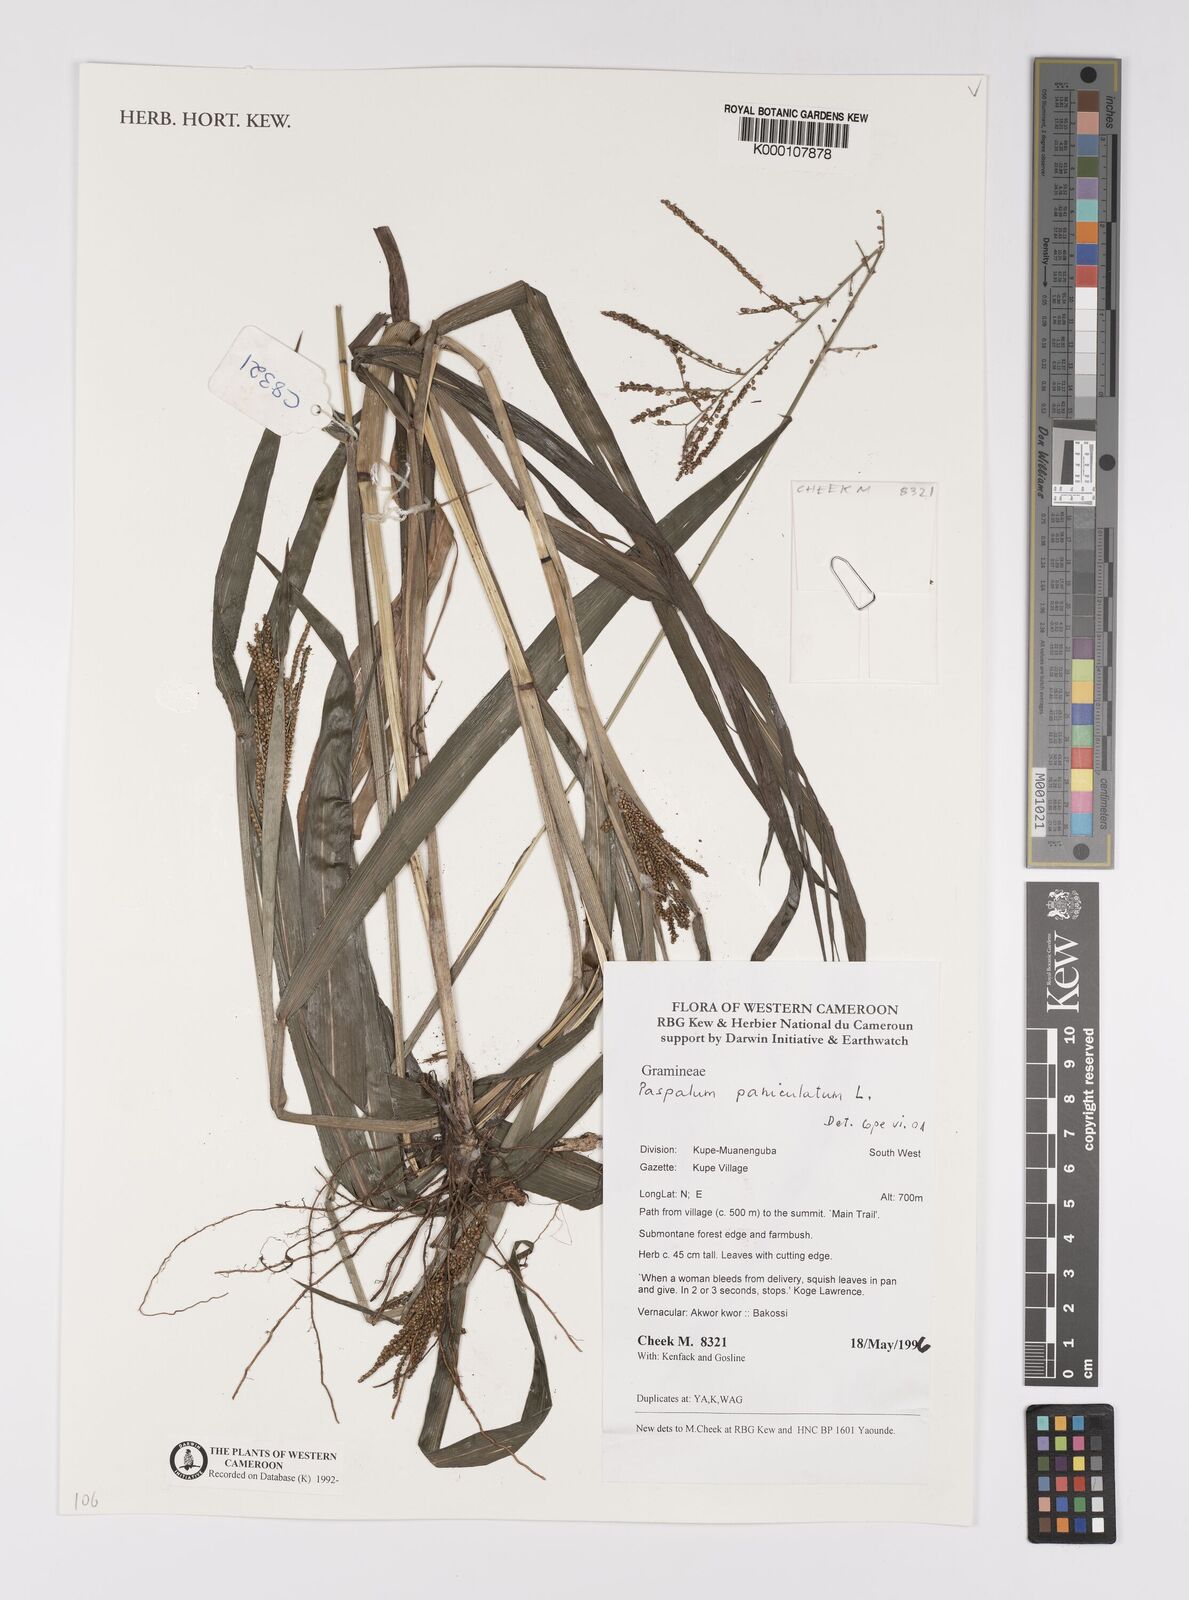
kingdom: Plantae
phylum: Tracheophyta
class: Liliopsida
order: Poales
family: Poaceae
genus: Paspalum
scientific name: Paspalum paniculatum
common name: Arrocillo
